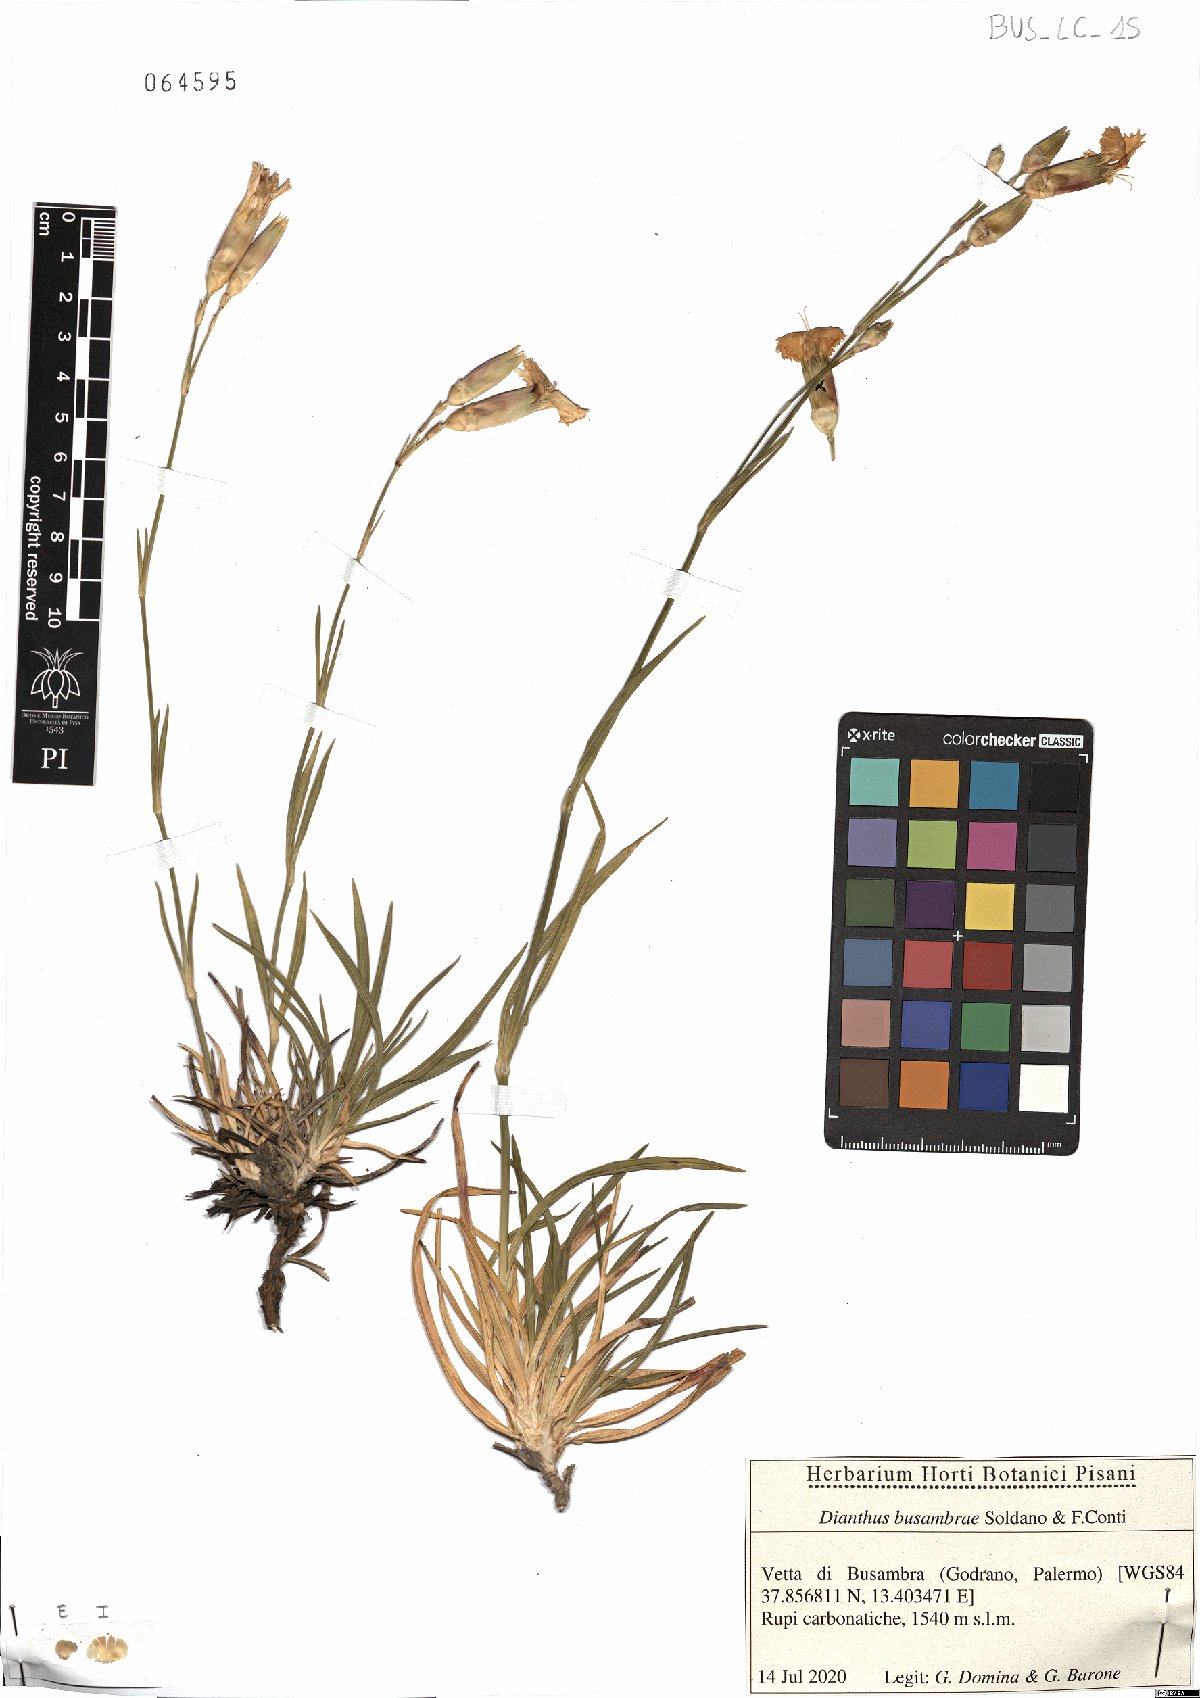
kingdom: Plantae
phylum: Tracheophyta
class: Magnoliopsida
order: Caryophyllales
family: Caryophyllaceae
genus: Dianthus
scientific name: Dianthus busambrae
